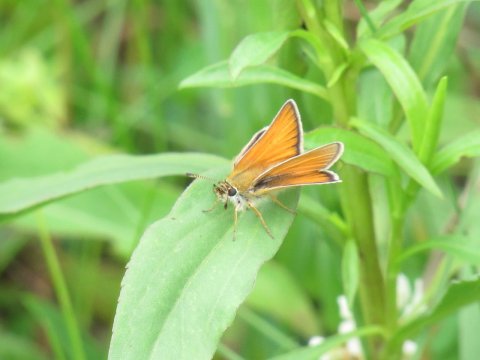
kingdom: Animalia
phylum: Arthropoda
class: Insecta
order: Lepidoptera
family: Hesperiidae
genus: Thymelicus
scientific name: Thymelicus lineola
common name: European Skipper
